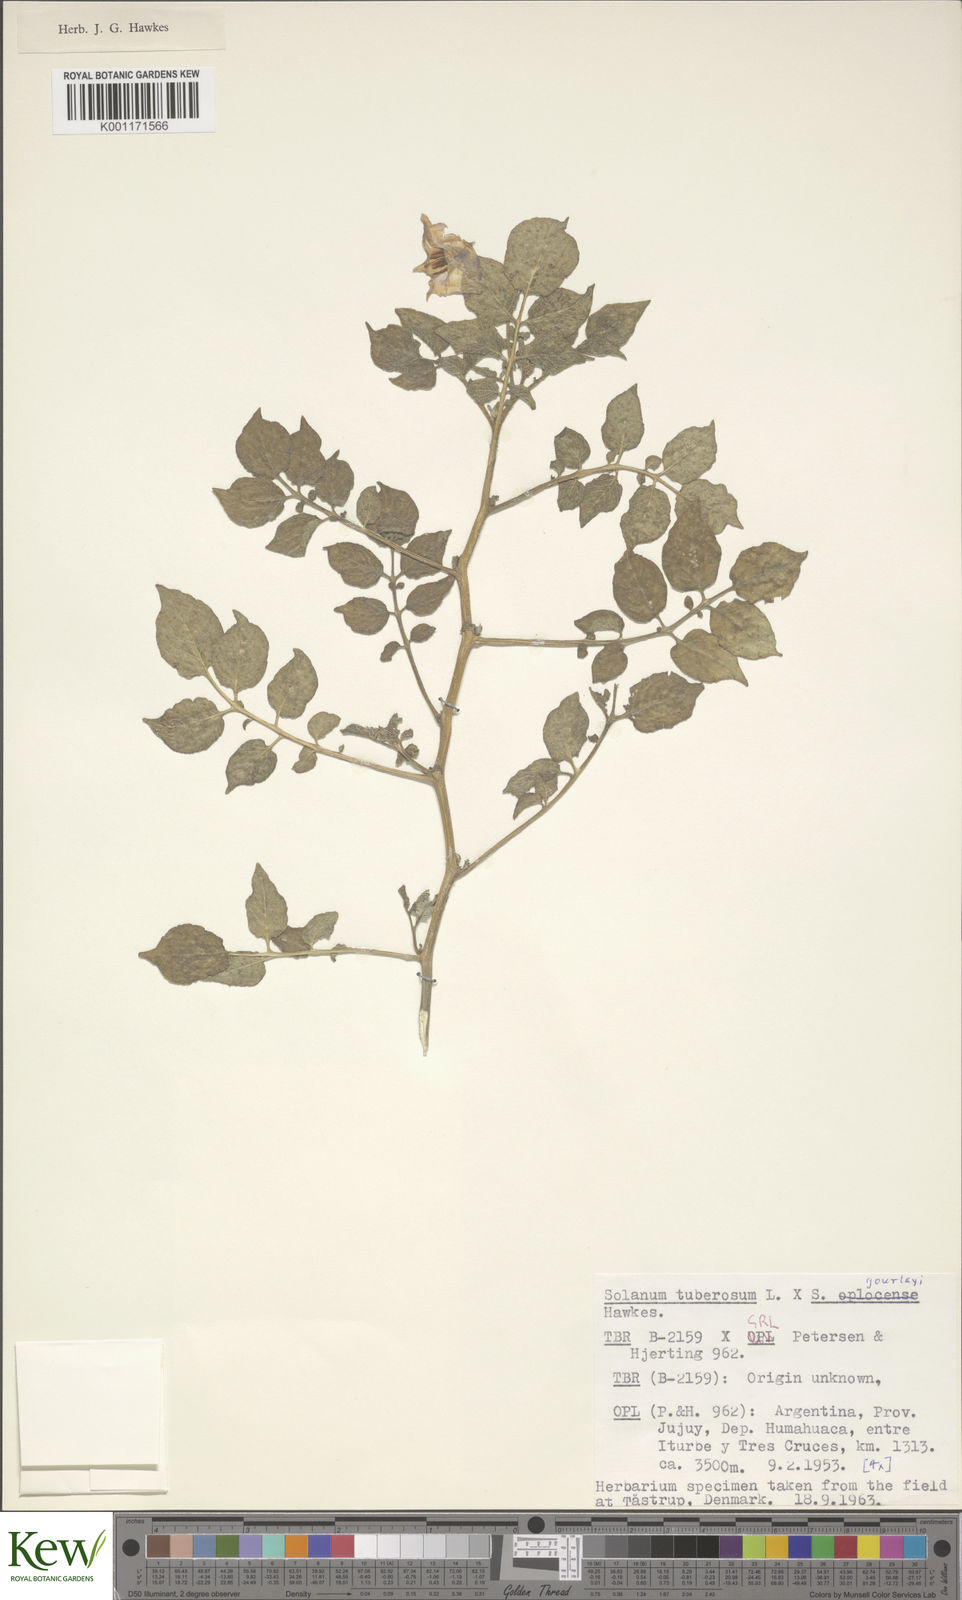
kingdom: Plantae
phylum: Tracheophyta
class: Magnoliopsida
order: Solanales
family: Solanaceae
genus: Solanum
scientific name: Solanum
